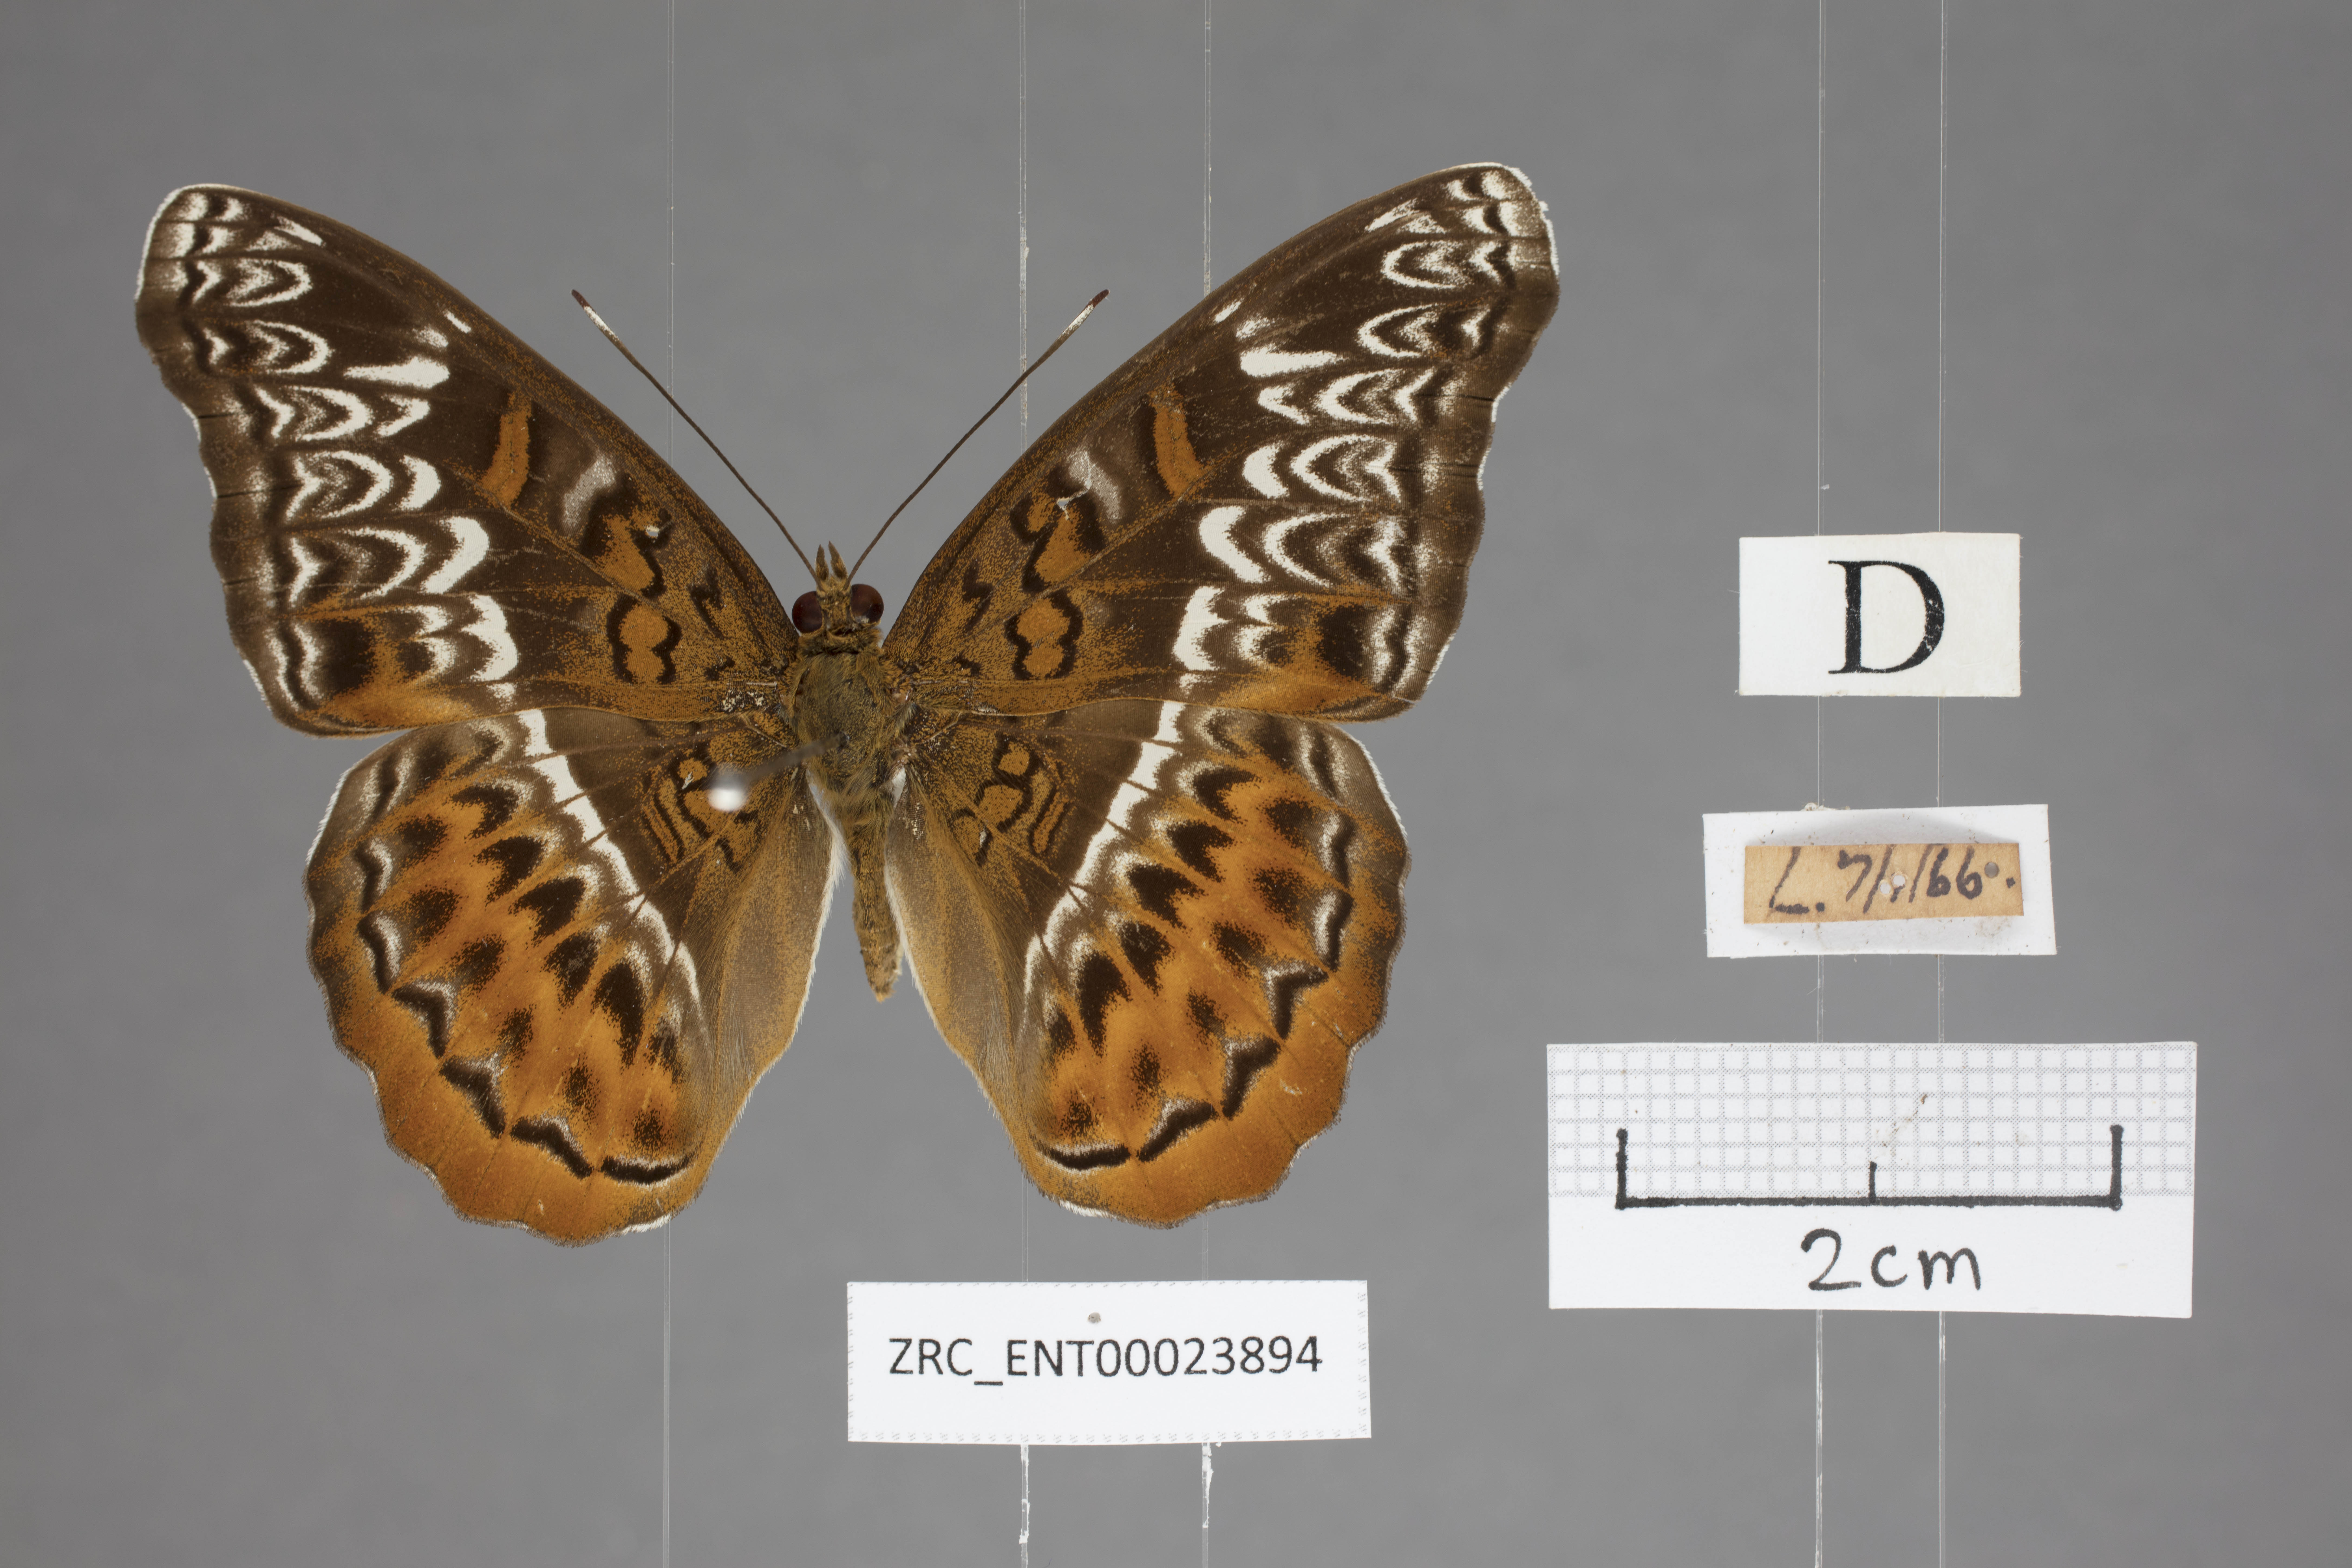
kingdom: Animalia
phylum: Arthropoda
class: Insecta
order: Lepidoptera
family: Nymphalidae
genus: Lebadea
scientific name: Lebadea martha
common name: Knight
